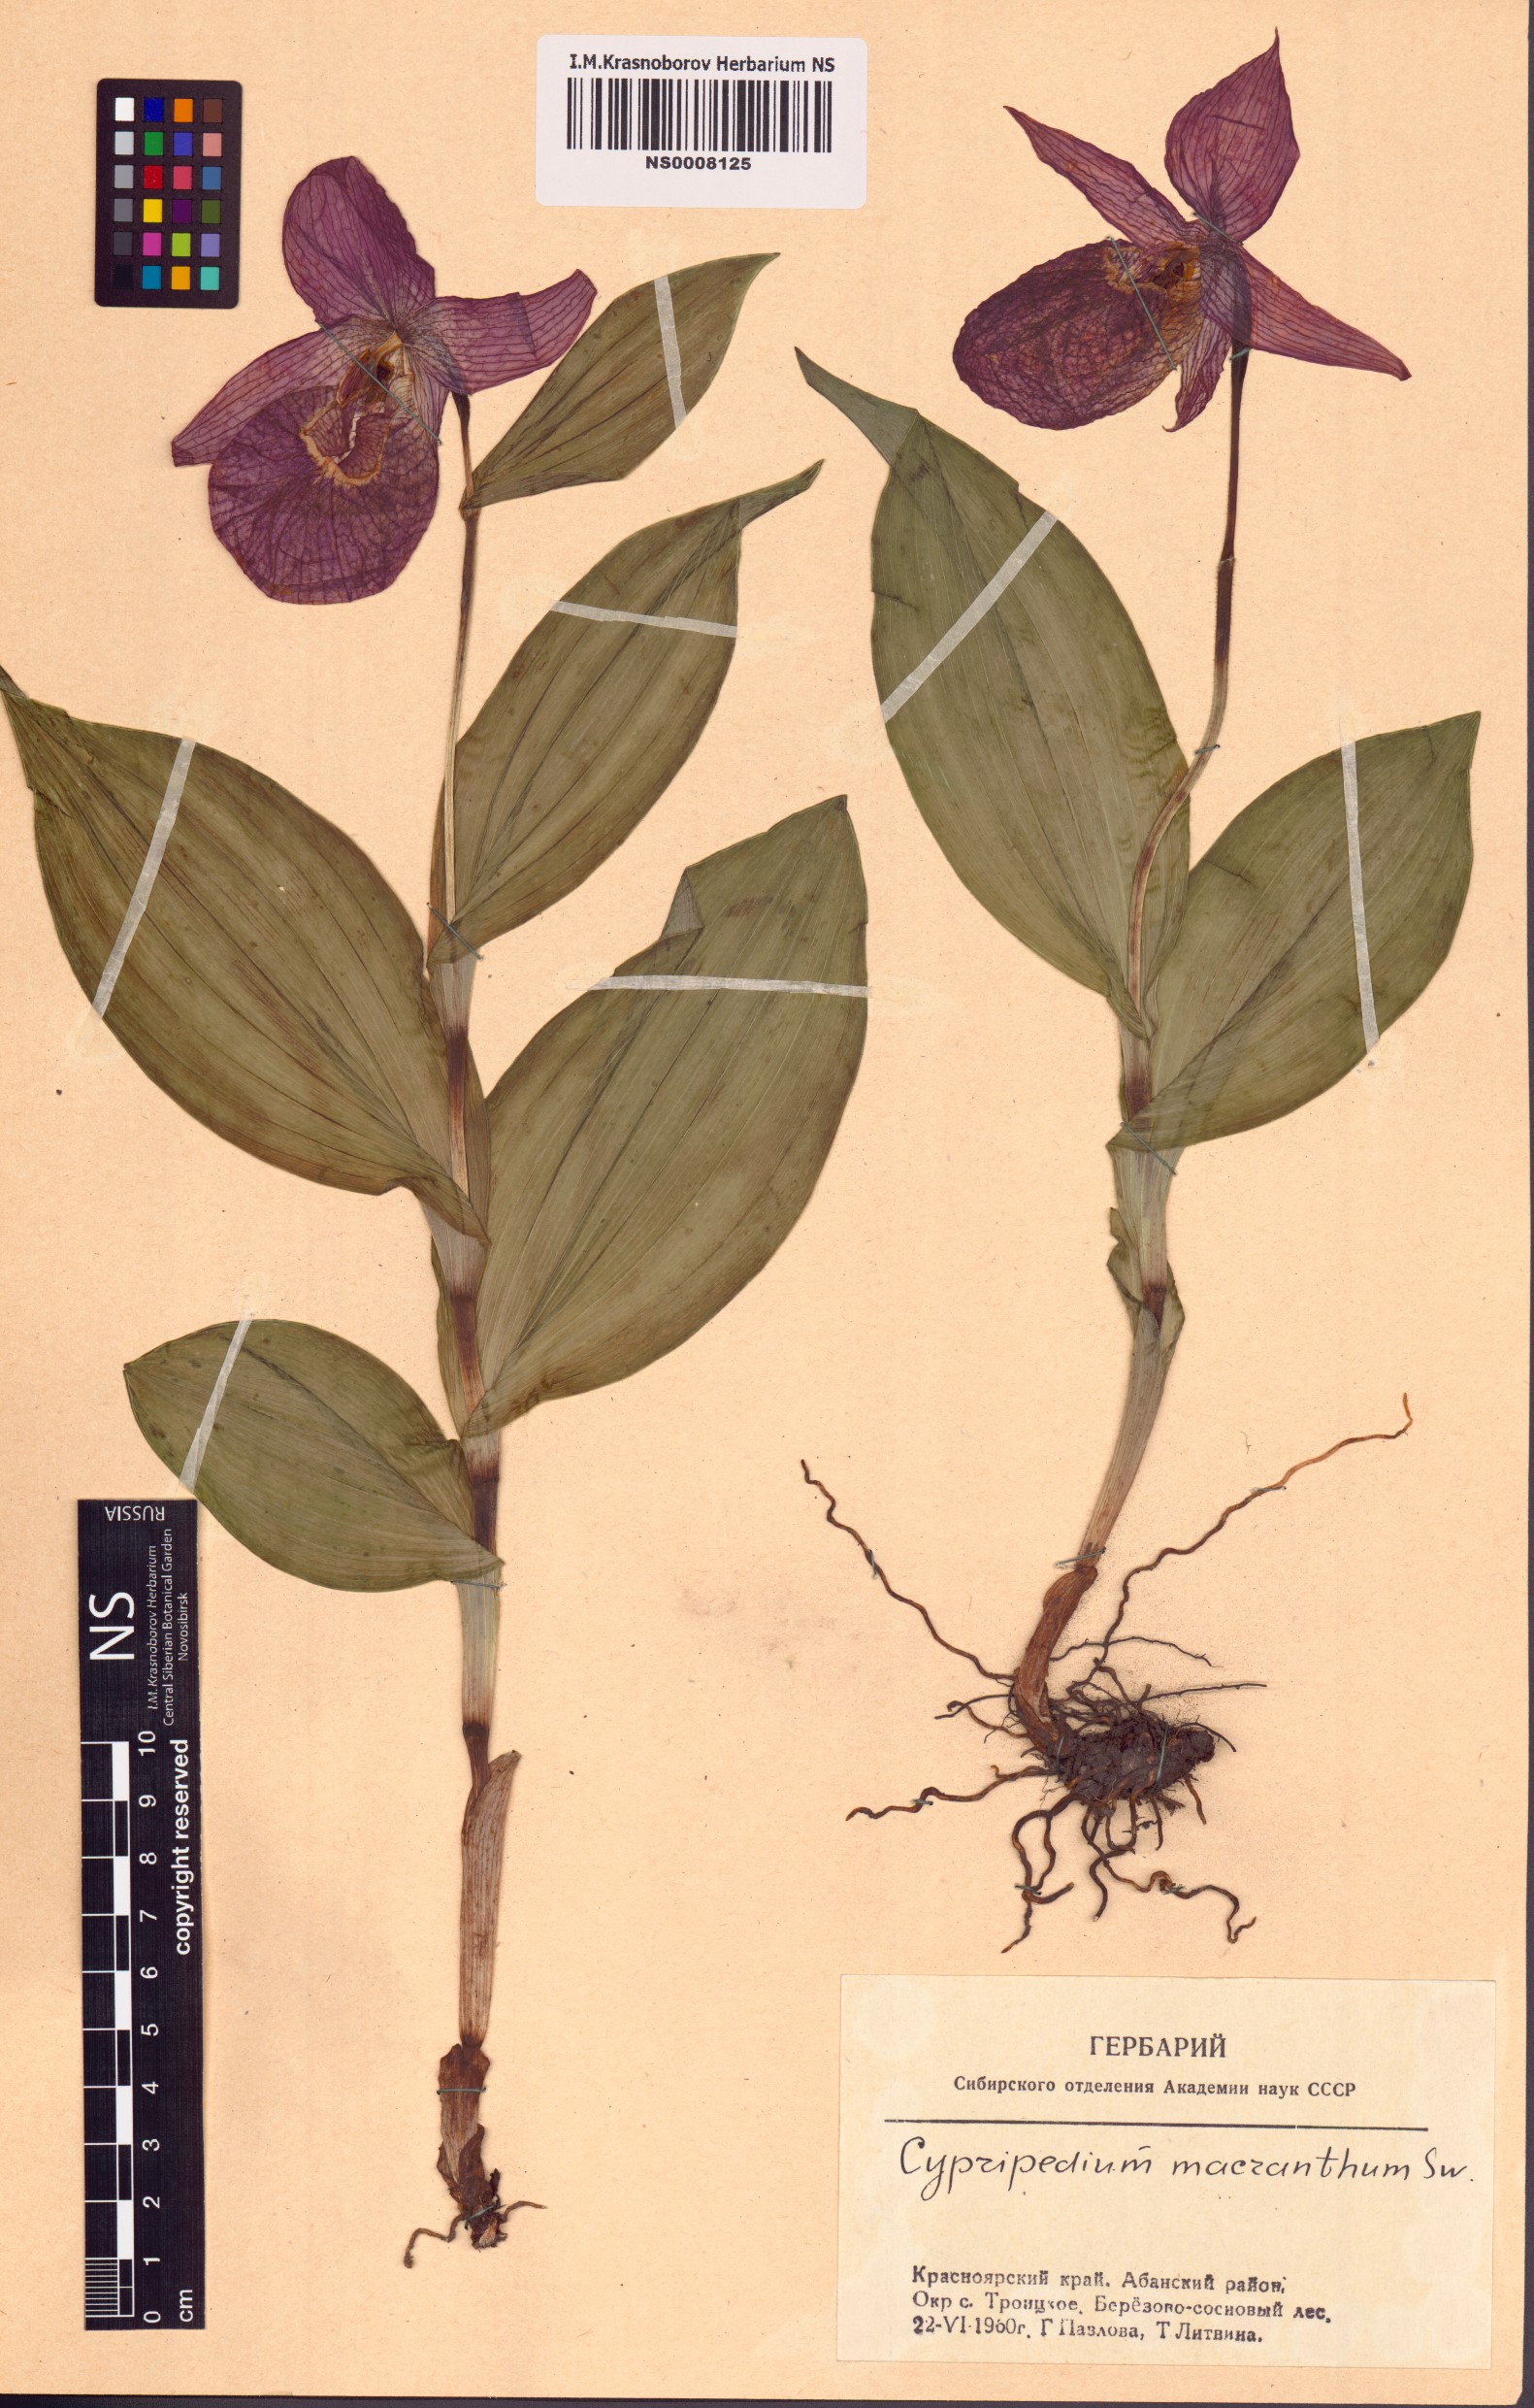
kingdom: Plantae
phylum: Tracheophyta
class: Liliopsida
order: Asparagales
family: Orchidaceae
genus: Cypripedium
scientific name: Cypripedium macranthos
